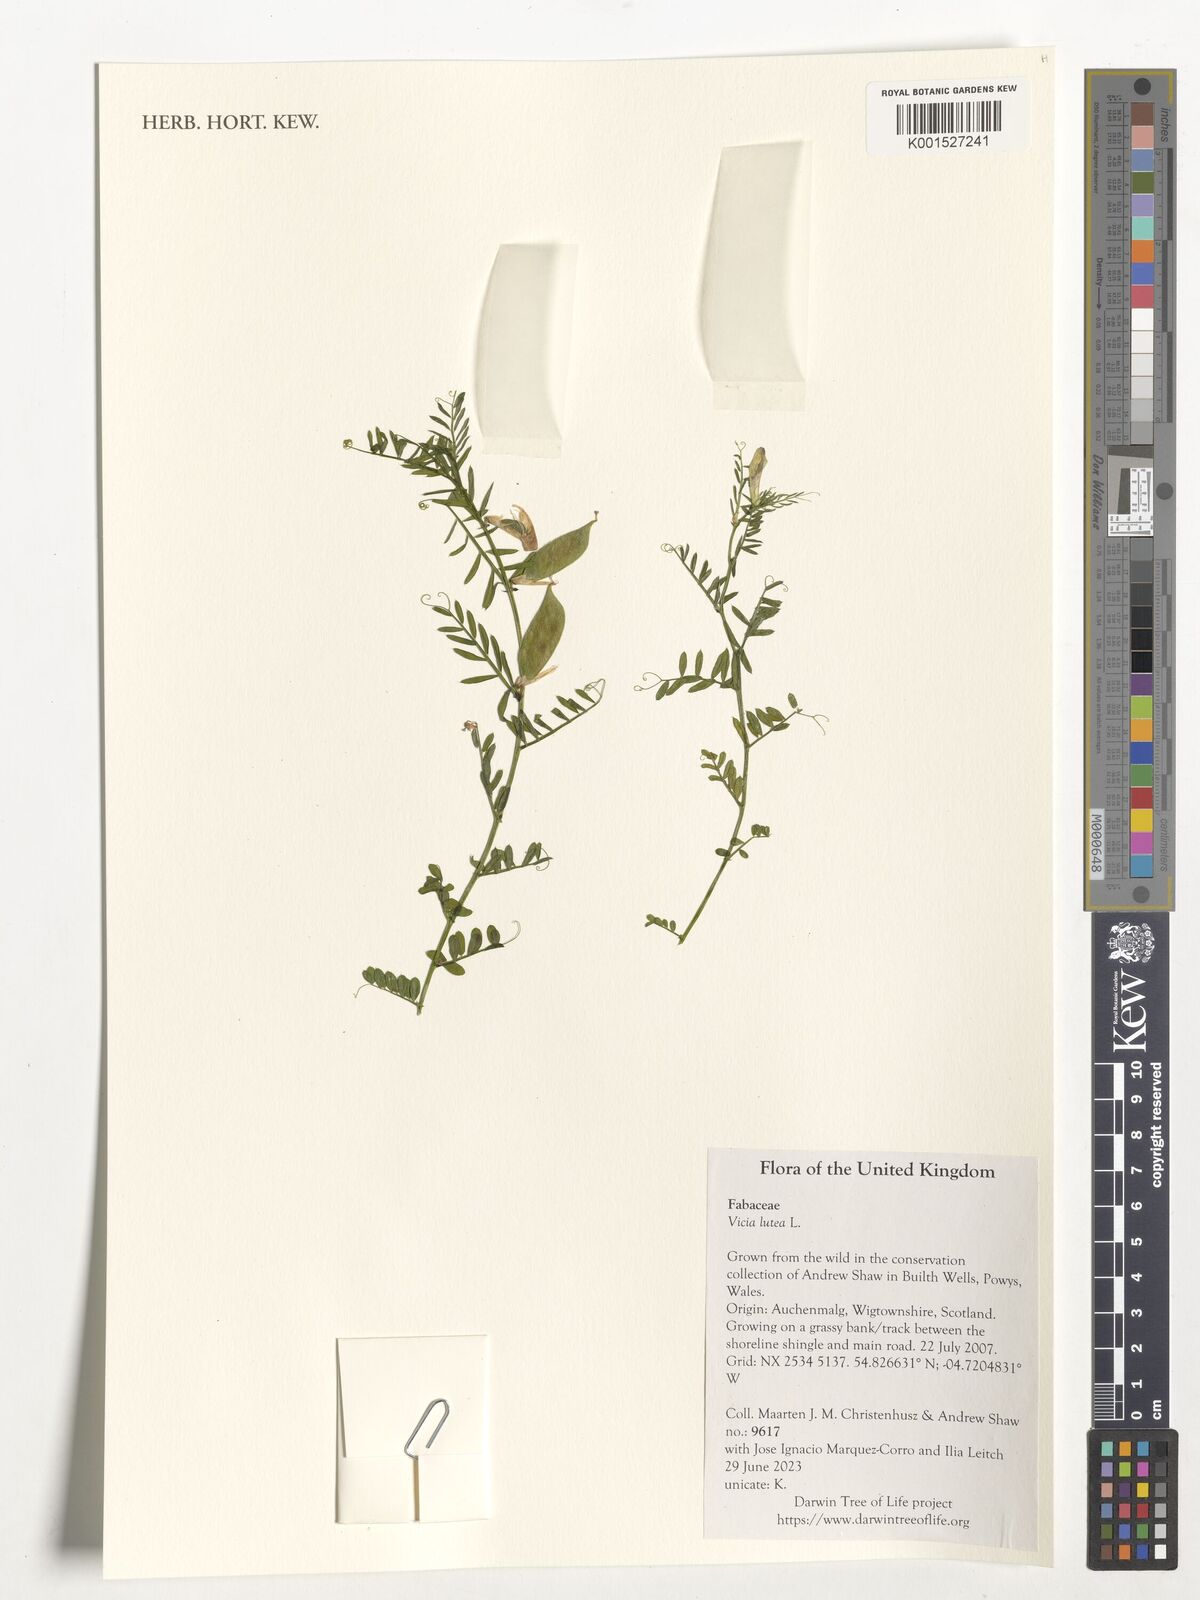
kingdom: Plantae
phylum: Tracheophyta
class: Magnoliopsida
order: Fabales
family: Fabaceae
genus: Vicia
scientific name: Vicia lutea
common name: Smooth yellow vetch
